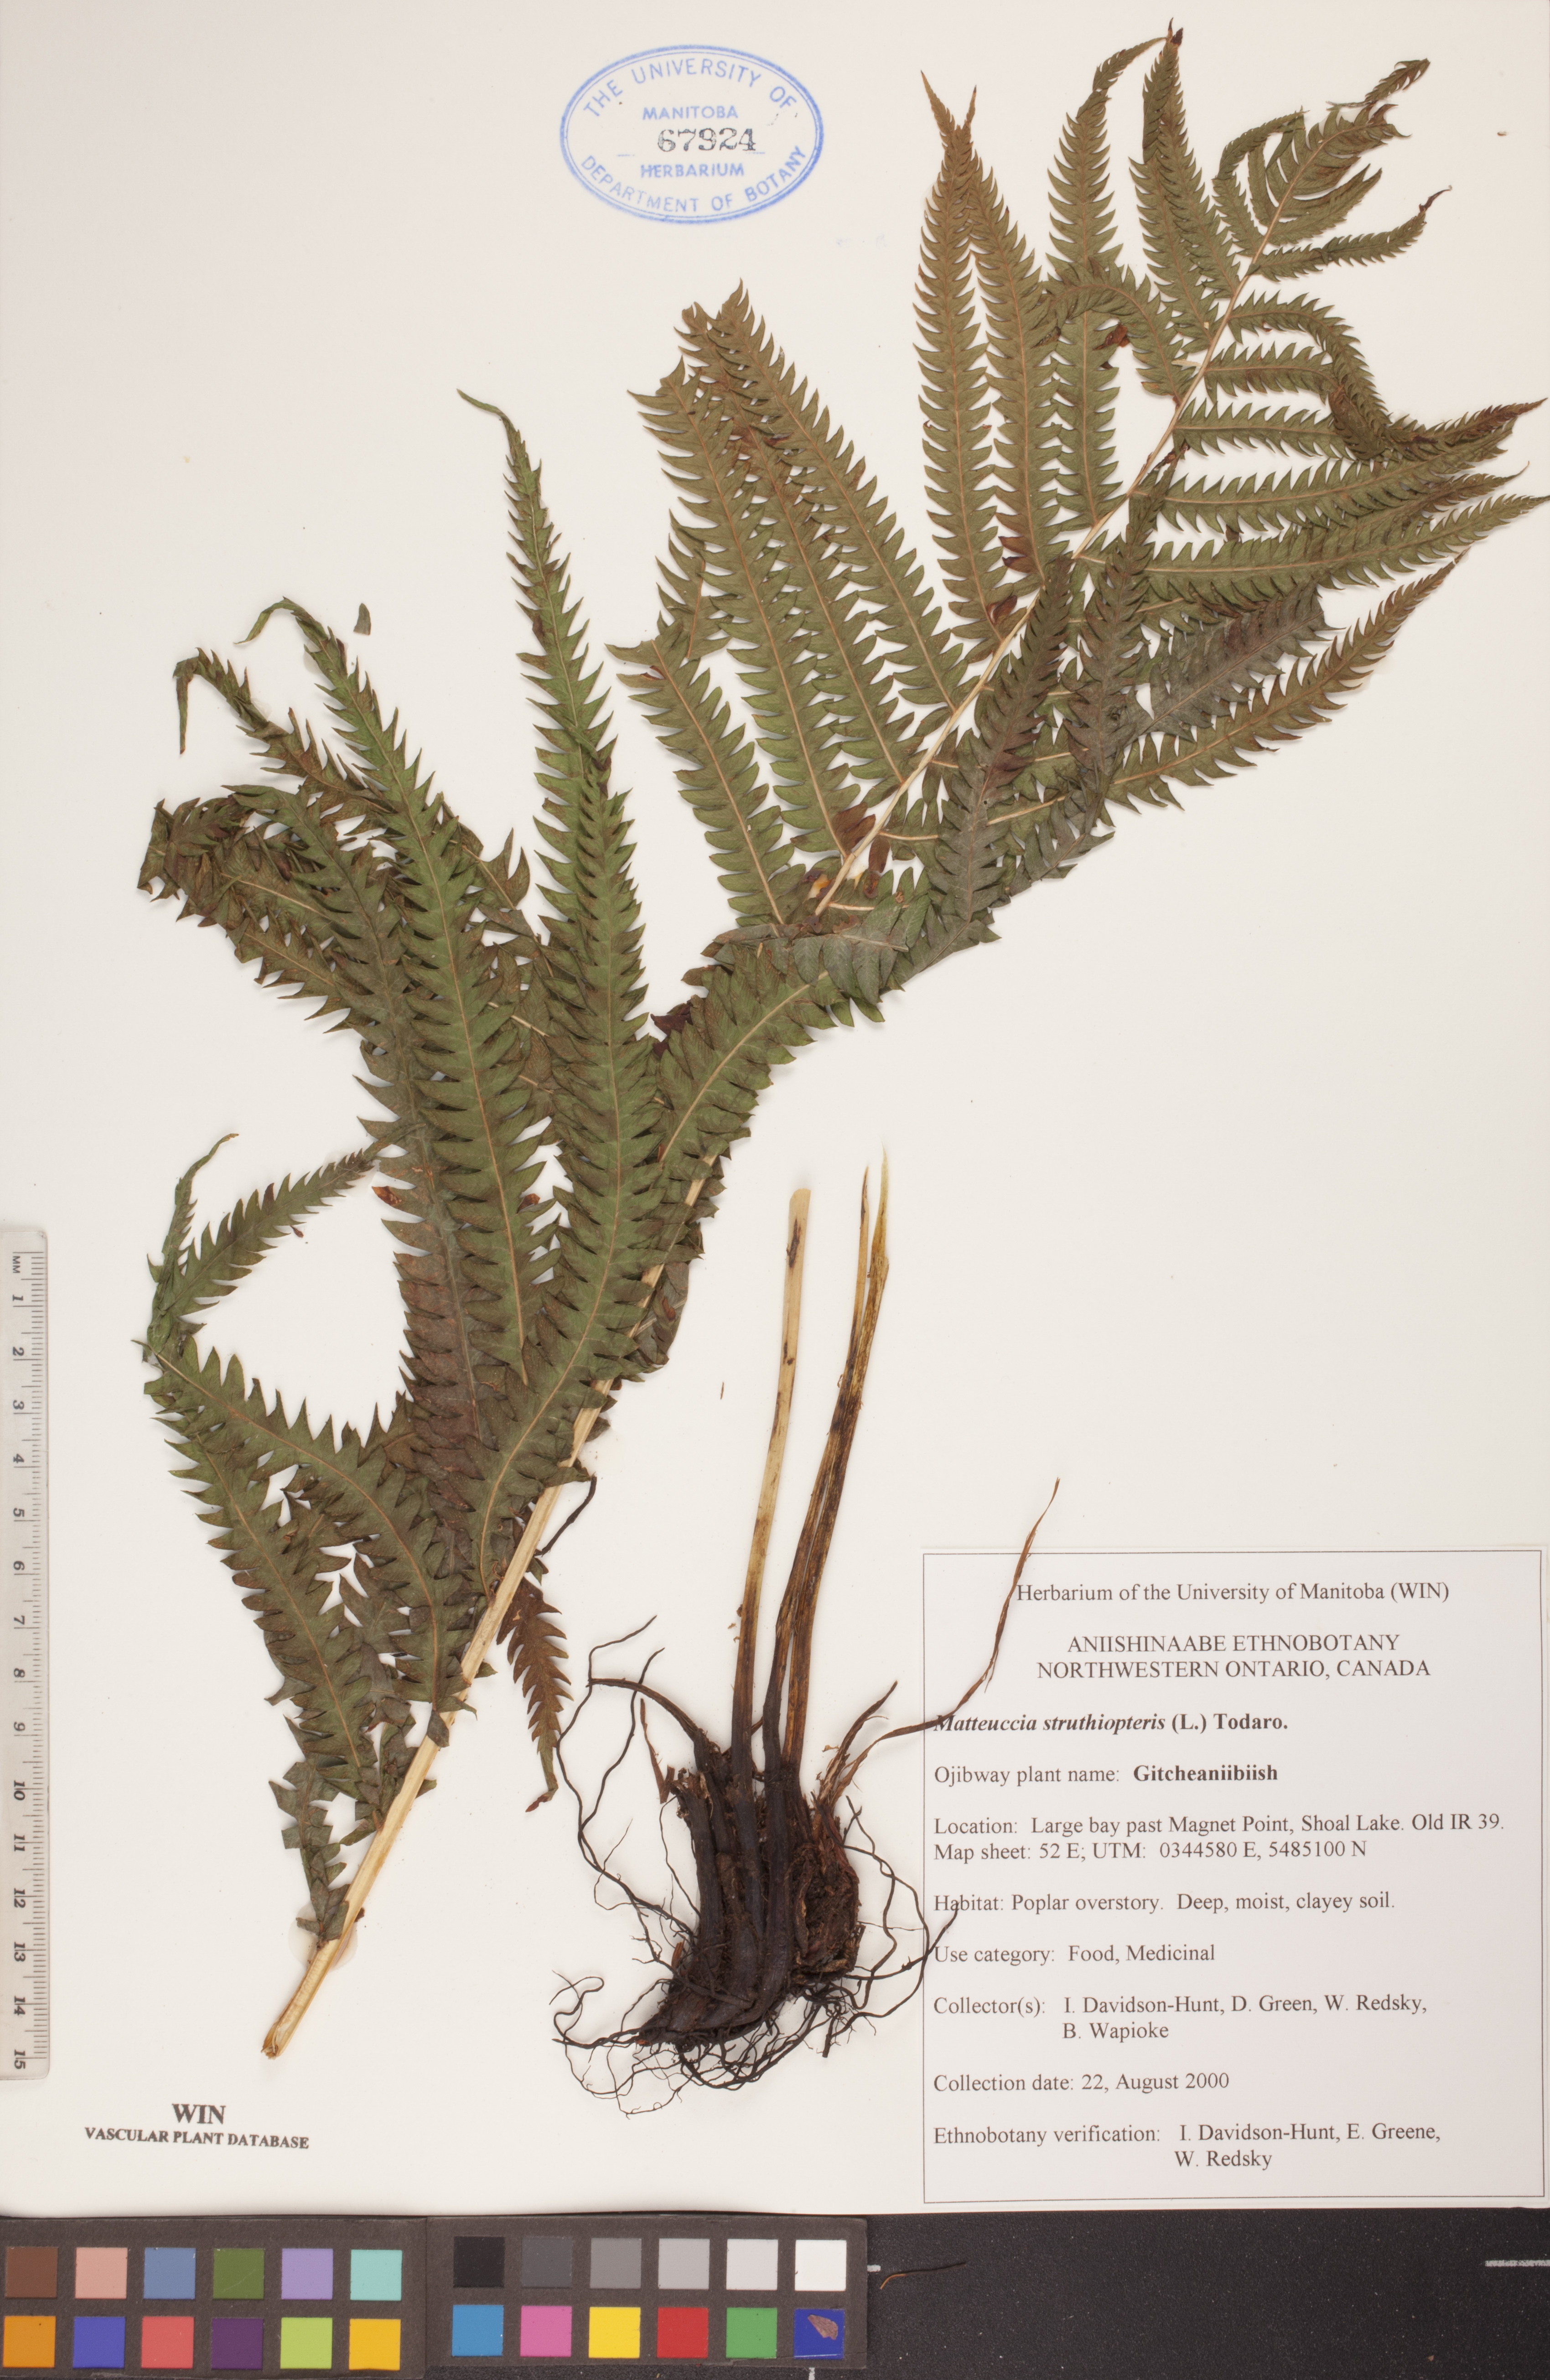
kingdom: Plantae
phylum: Tracheophyta
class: Polypodiopsida
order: Polypodiales
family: Onocleaceae
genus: Matteuccia
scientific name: Matteuccia struthiopteris
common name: Ostrich fern
